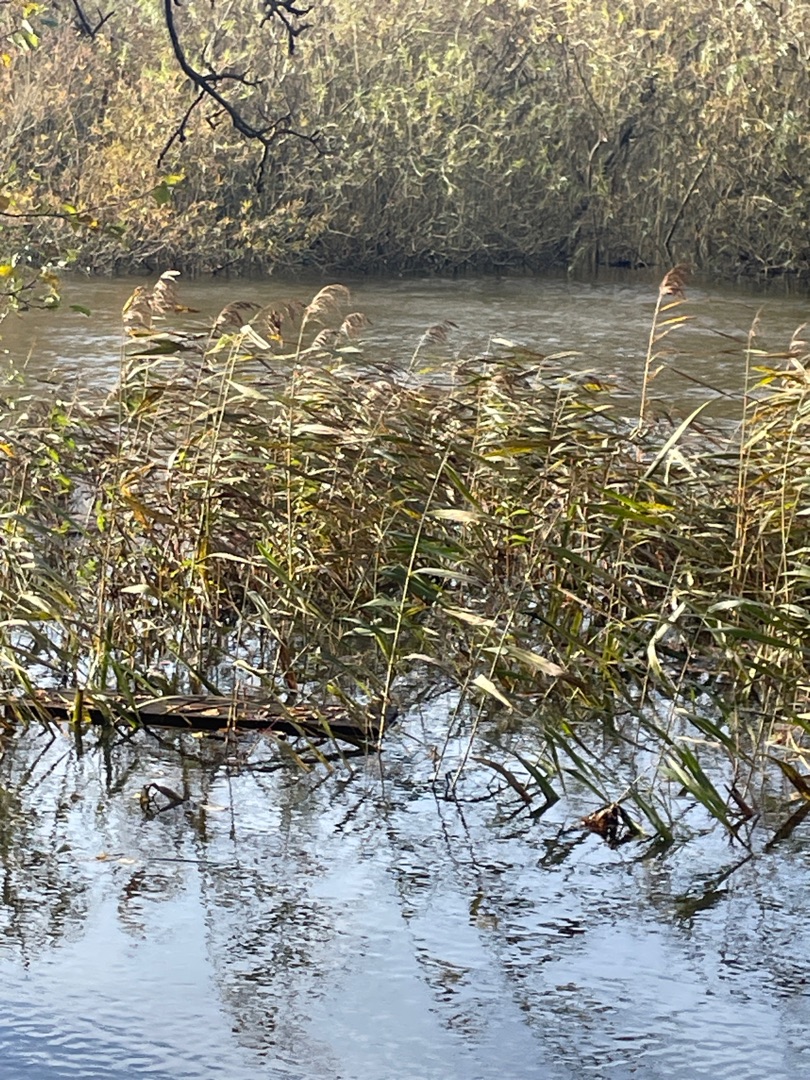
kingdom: Plantae
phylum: Tracheophyta
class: Liliopsida
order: Poales
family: Poaceae
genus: Phragmites
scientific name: Phragmites australis
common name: Tagrør
